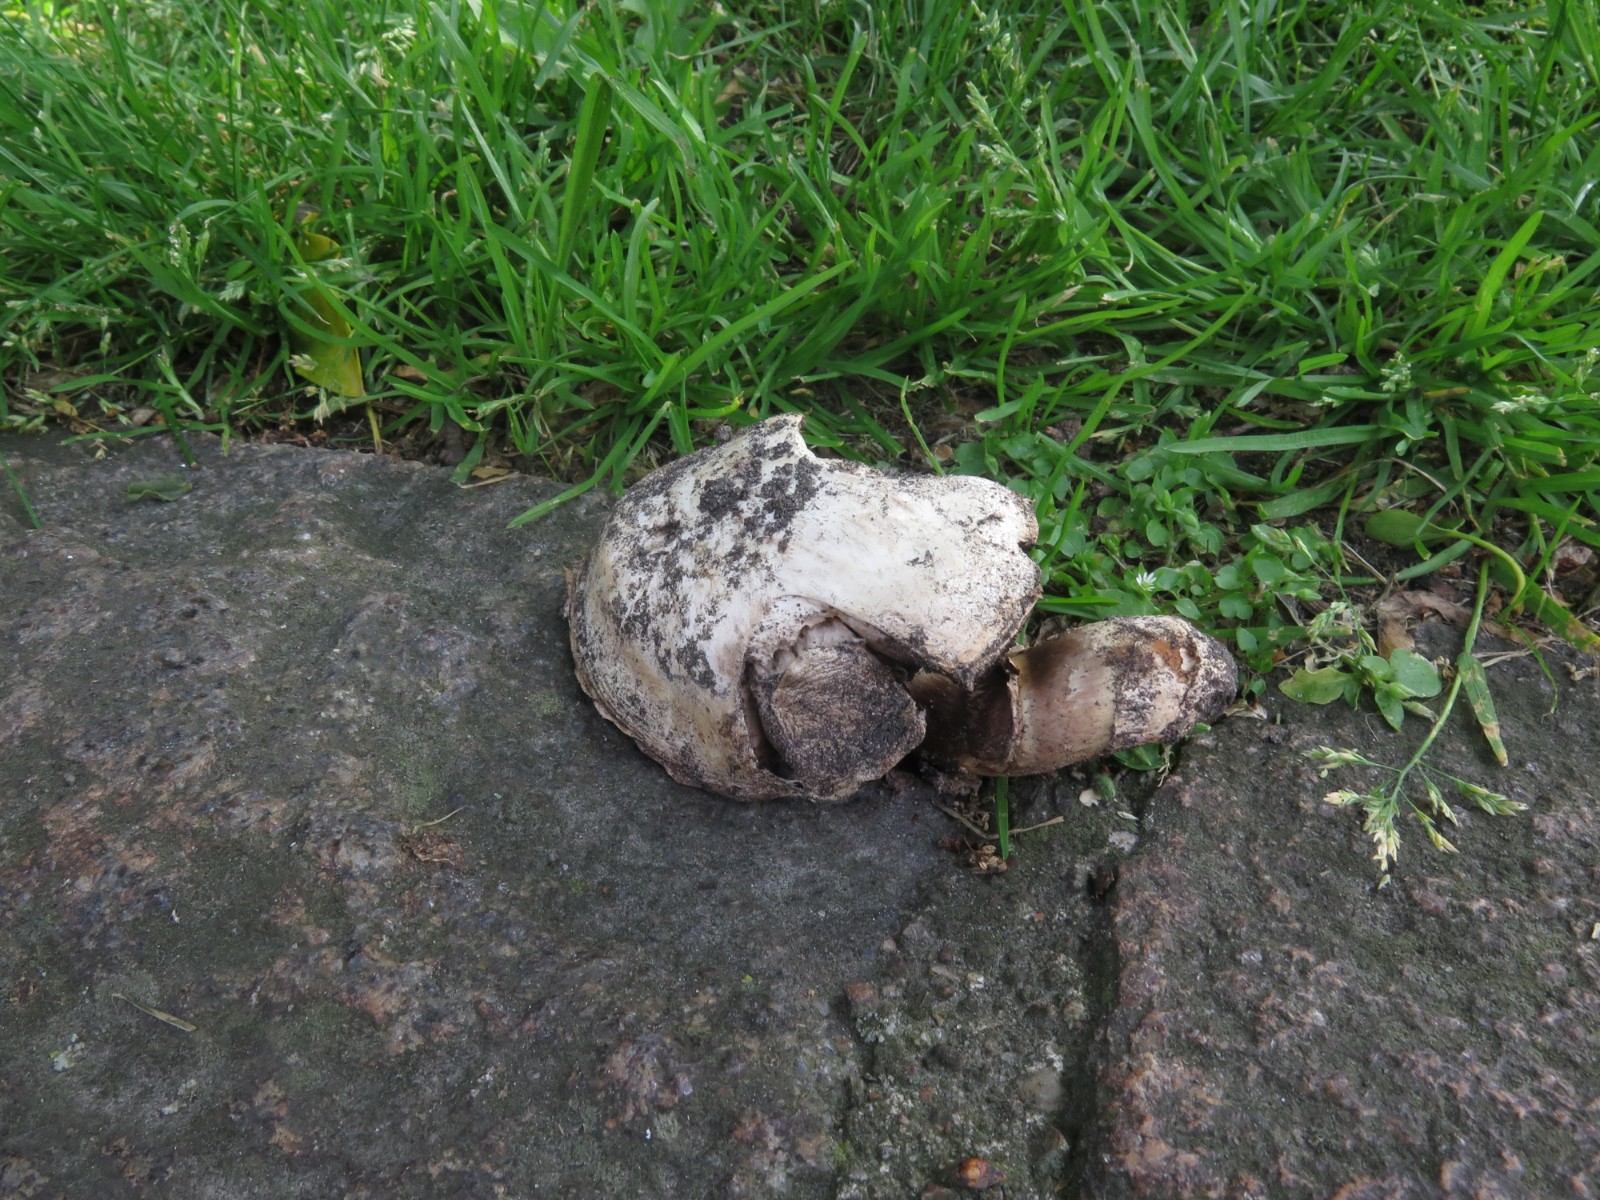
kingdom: Fungi
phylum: Basidiomycota
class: Agaricomycetes
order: Agaricales
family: Agaricaceae
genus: Agaricus
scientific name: Agaricus bitorquis
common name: vej-champignon
